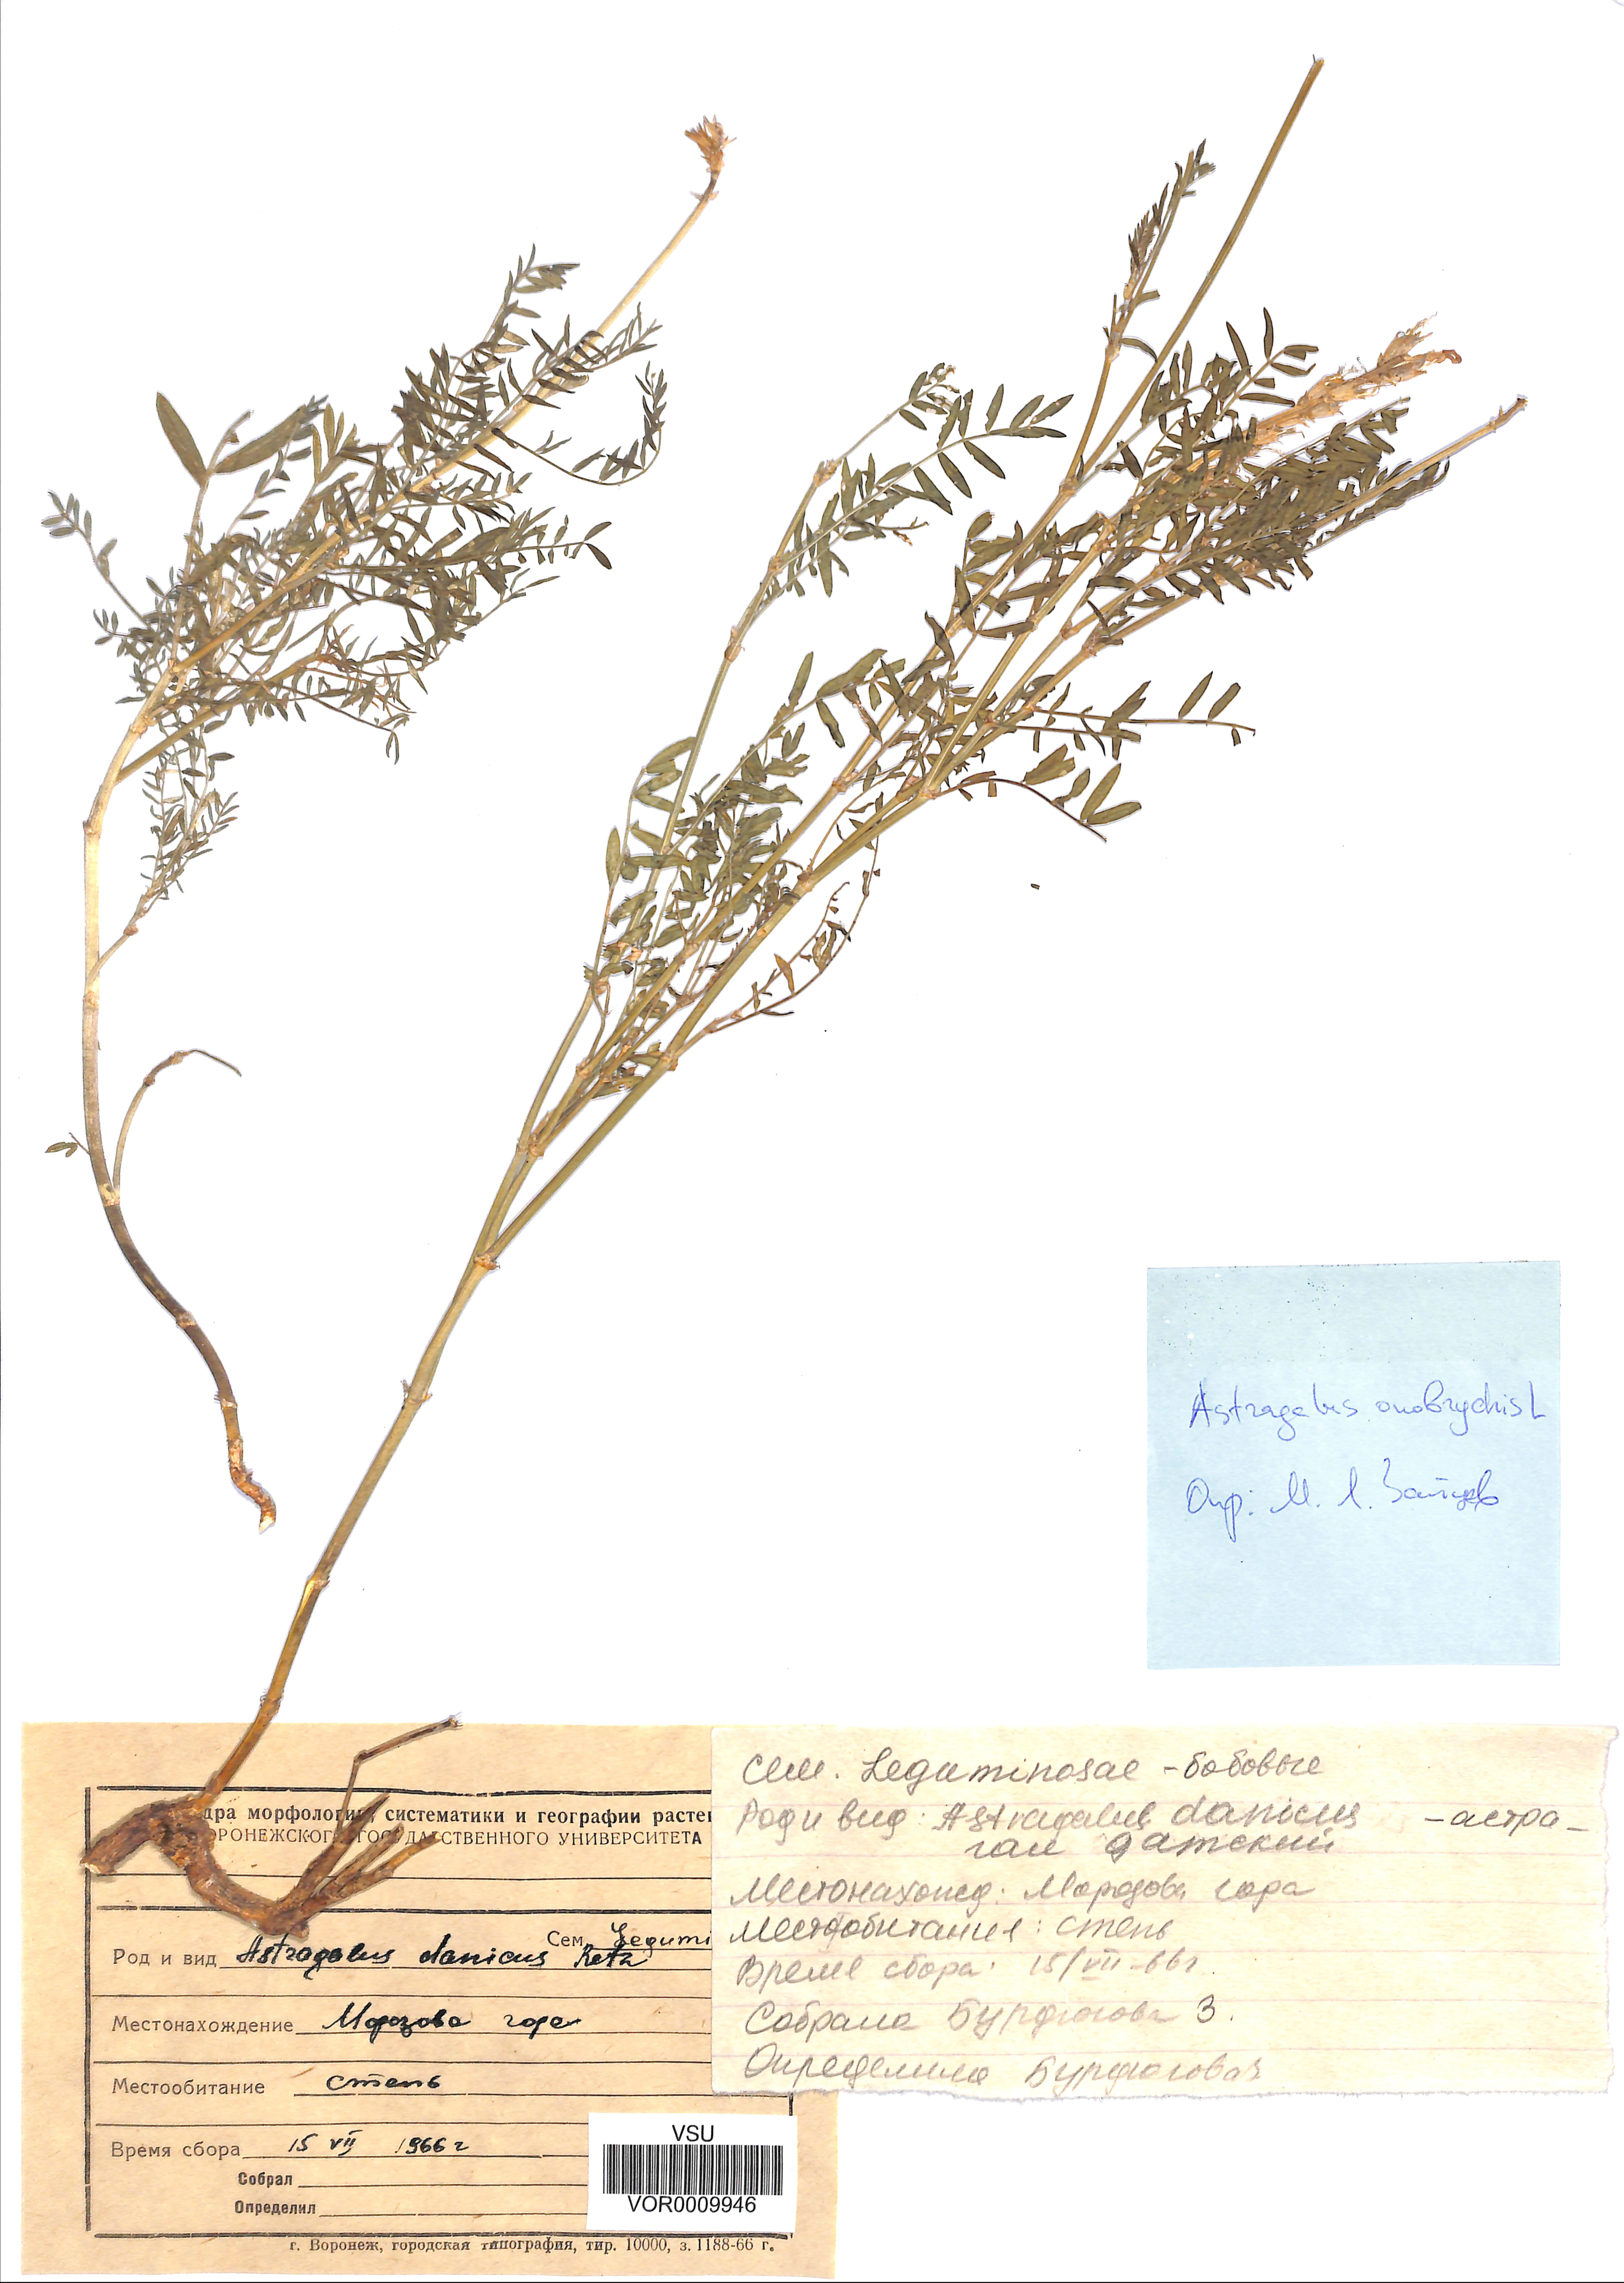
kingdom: Plantae
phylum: Tracheophyta
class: Magnoliopsida
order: Fabales
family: Fabaceae
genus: Astragalus
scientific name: Astragalus onobrychis
